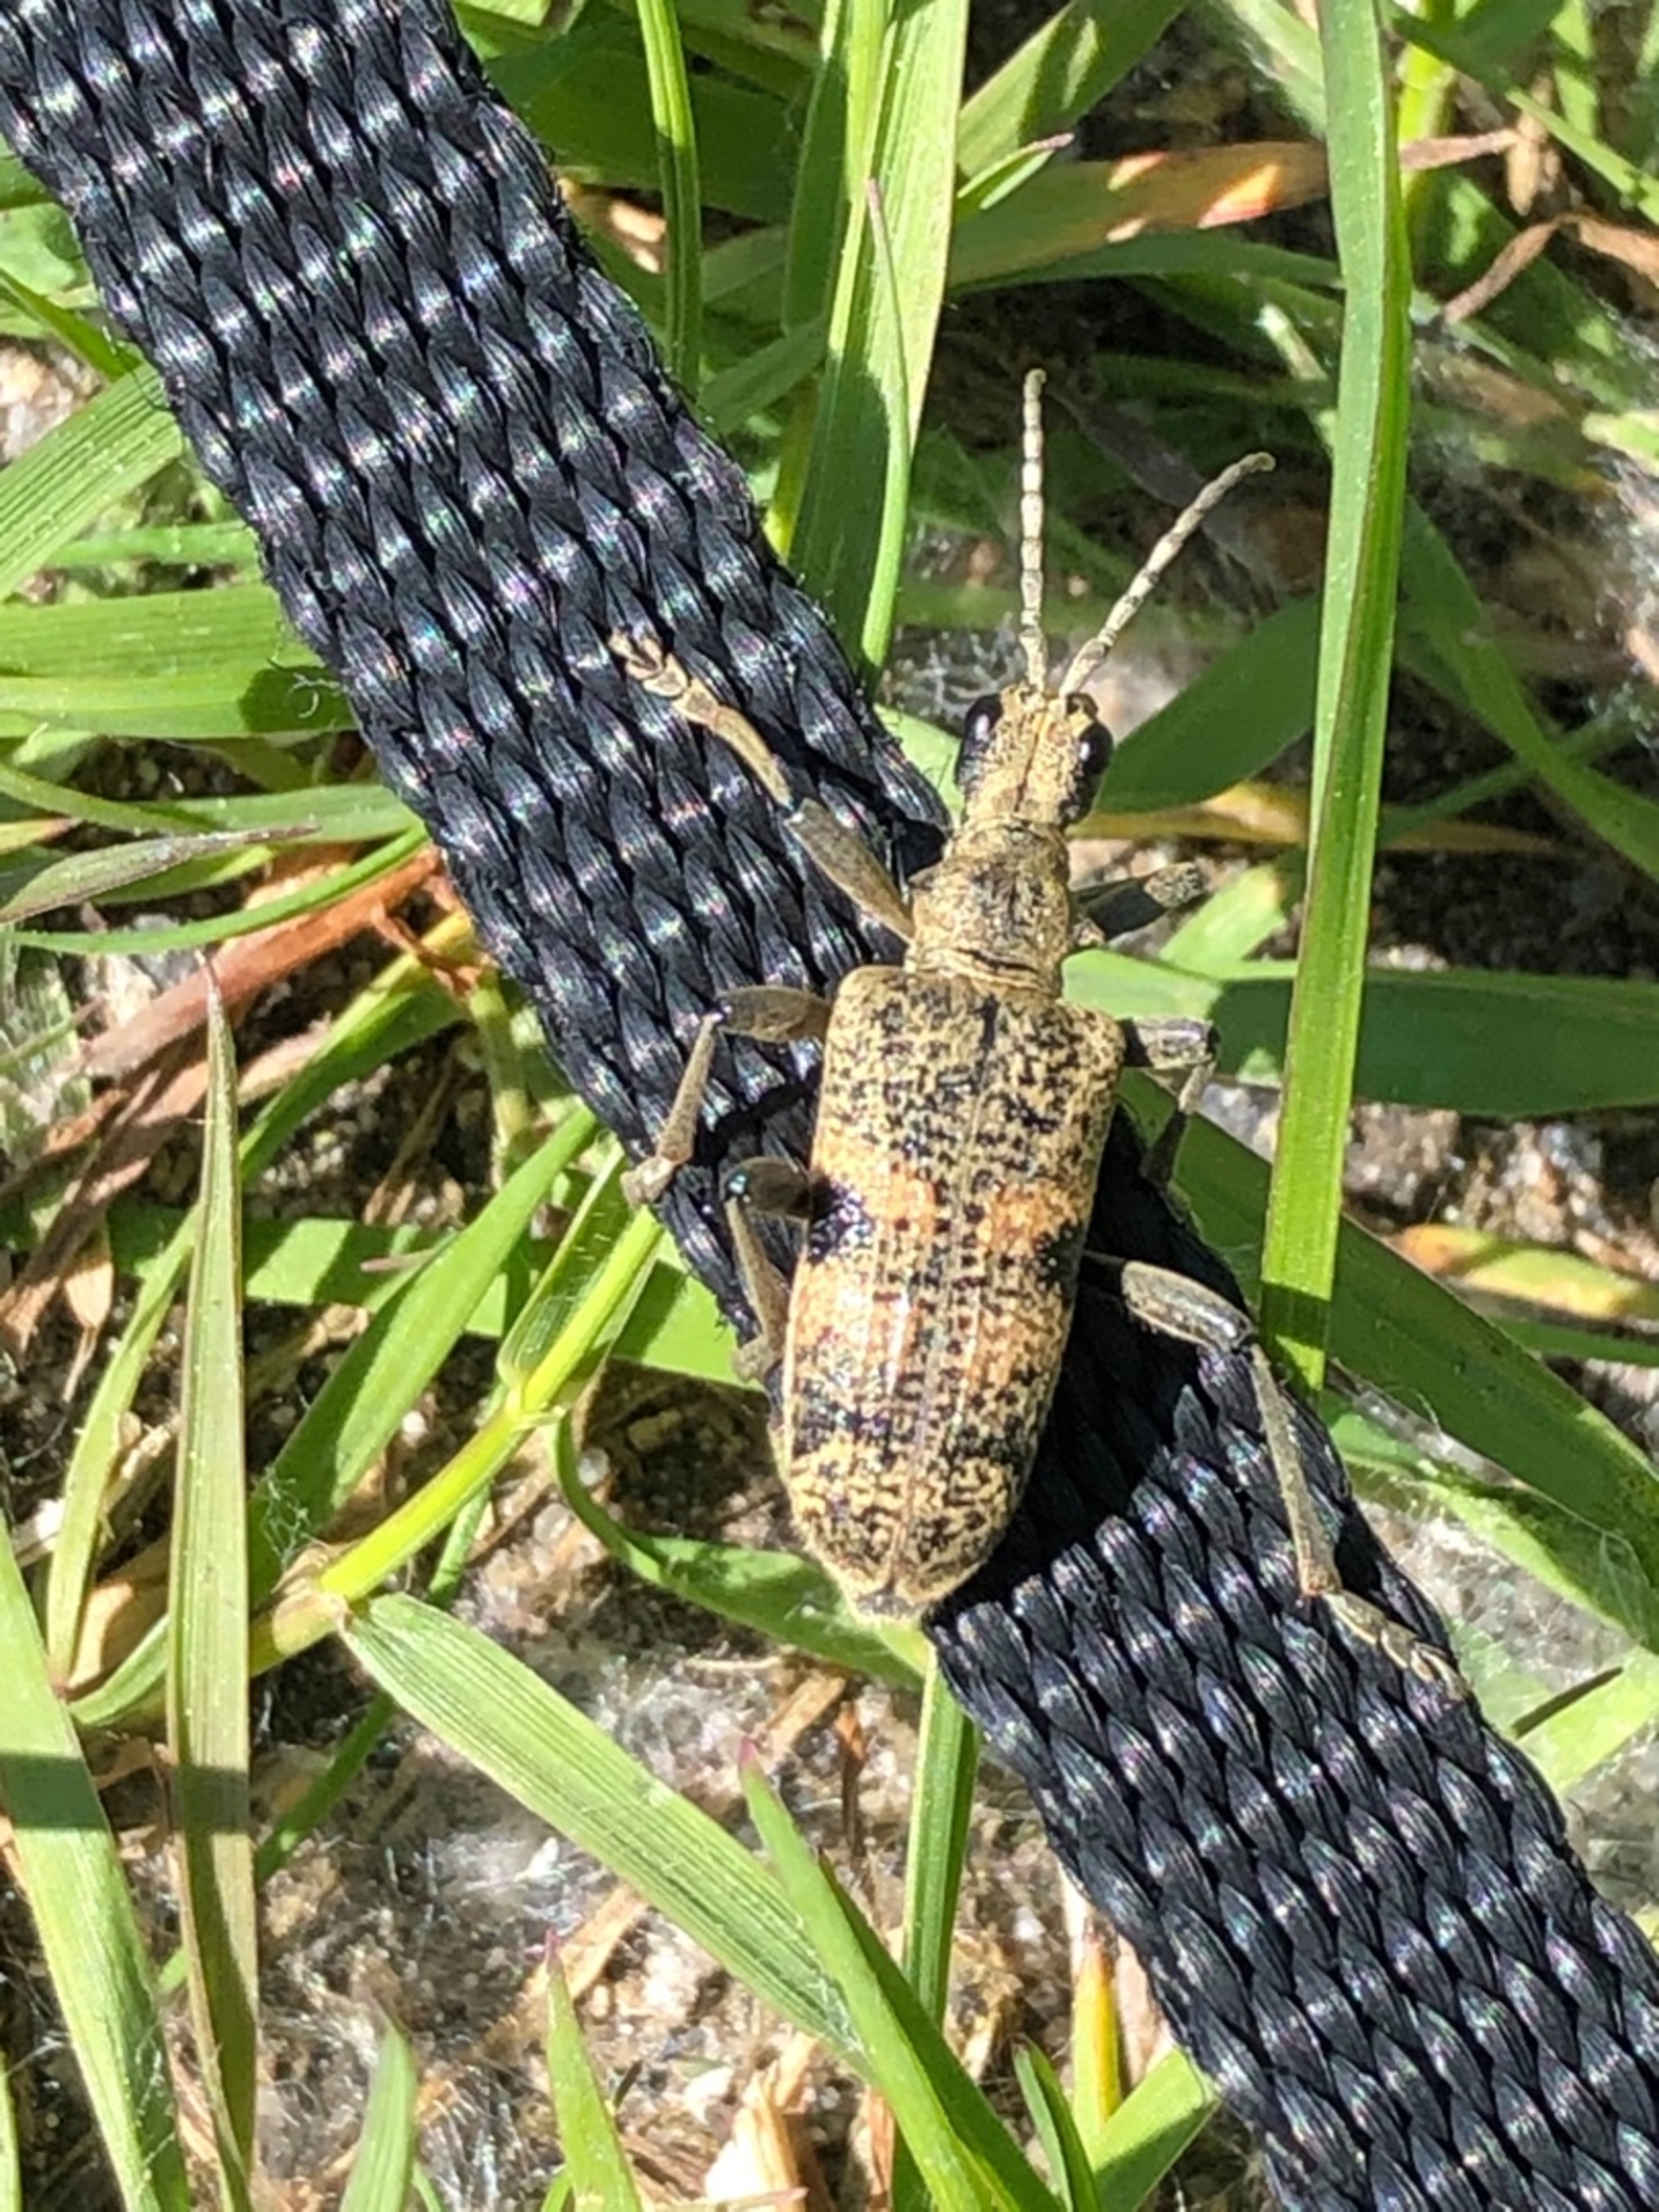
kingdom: Animalia
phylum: Arthropoda
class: Insecta
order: Coleoptera
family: Cerambycidae
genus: Rhagium
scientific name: Rhagium mordax
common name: Blankplettet tandbuk
